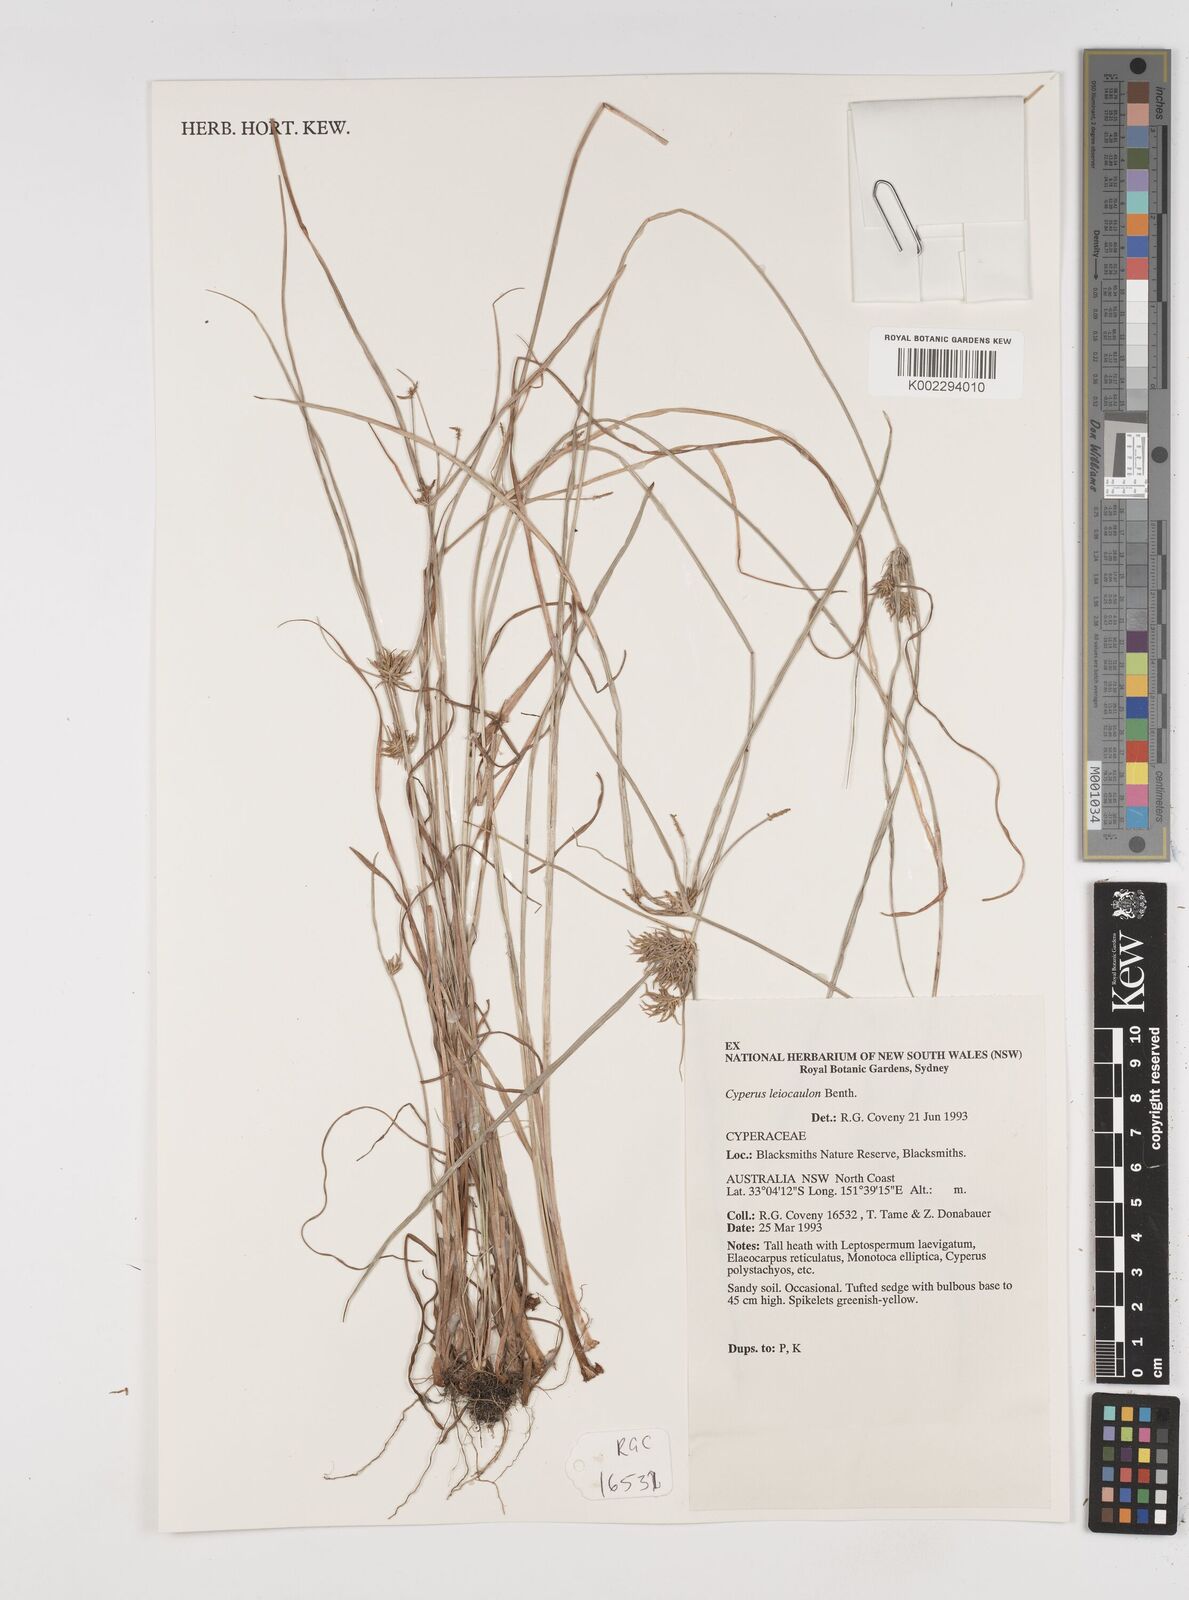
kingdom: Plantae
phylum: Tracheophyta
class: Liliopsida
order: Poales
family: Cyperaceae
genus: Cyperus
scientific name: Cyperus leiocaulon
